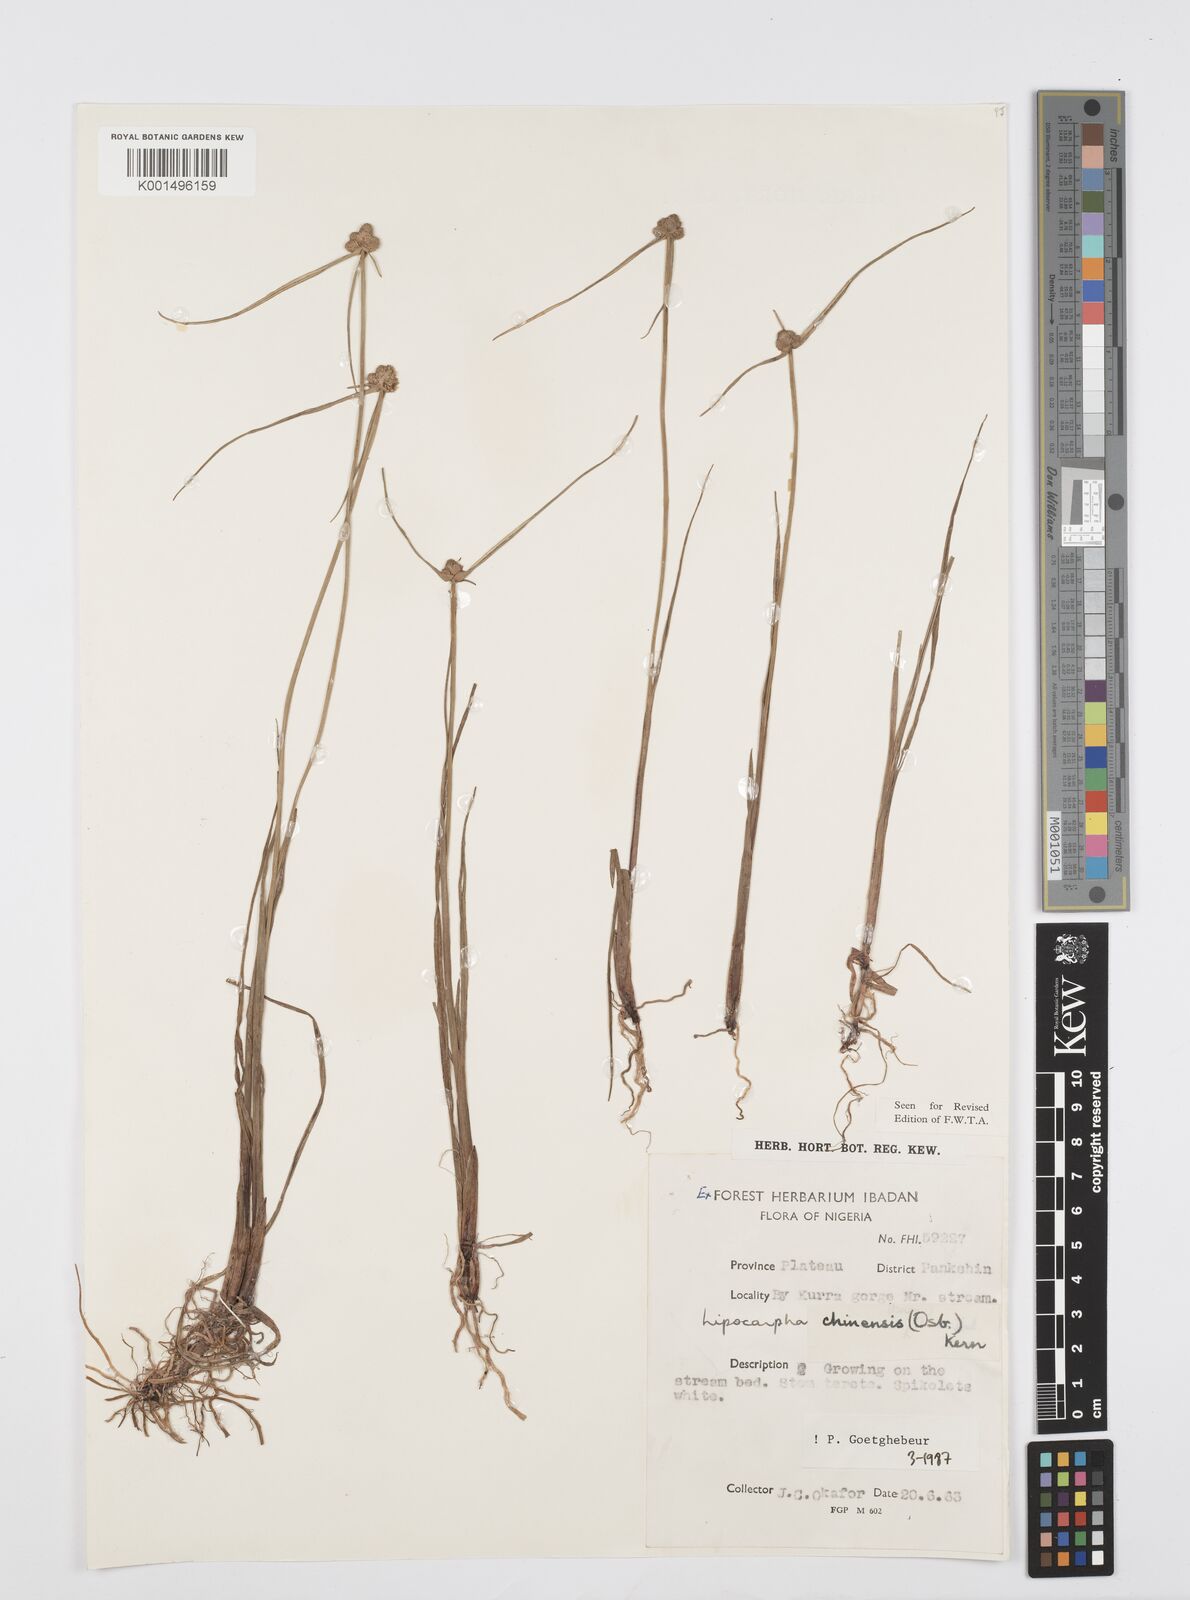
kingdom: Plantae
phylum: Tracheophyta
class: Liliopsida
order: Poales
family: Cyperaceae
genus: Cyperus
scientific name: Cyperus albescens
